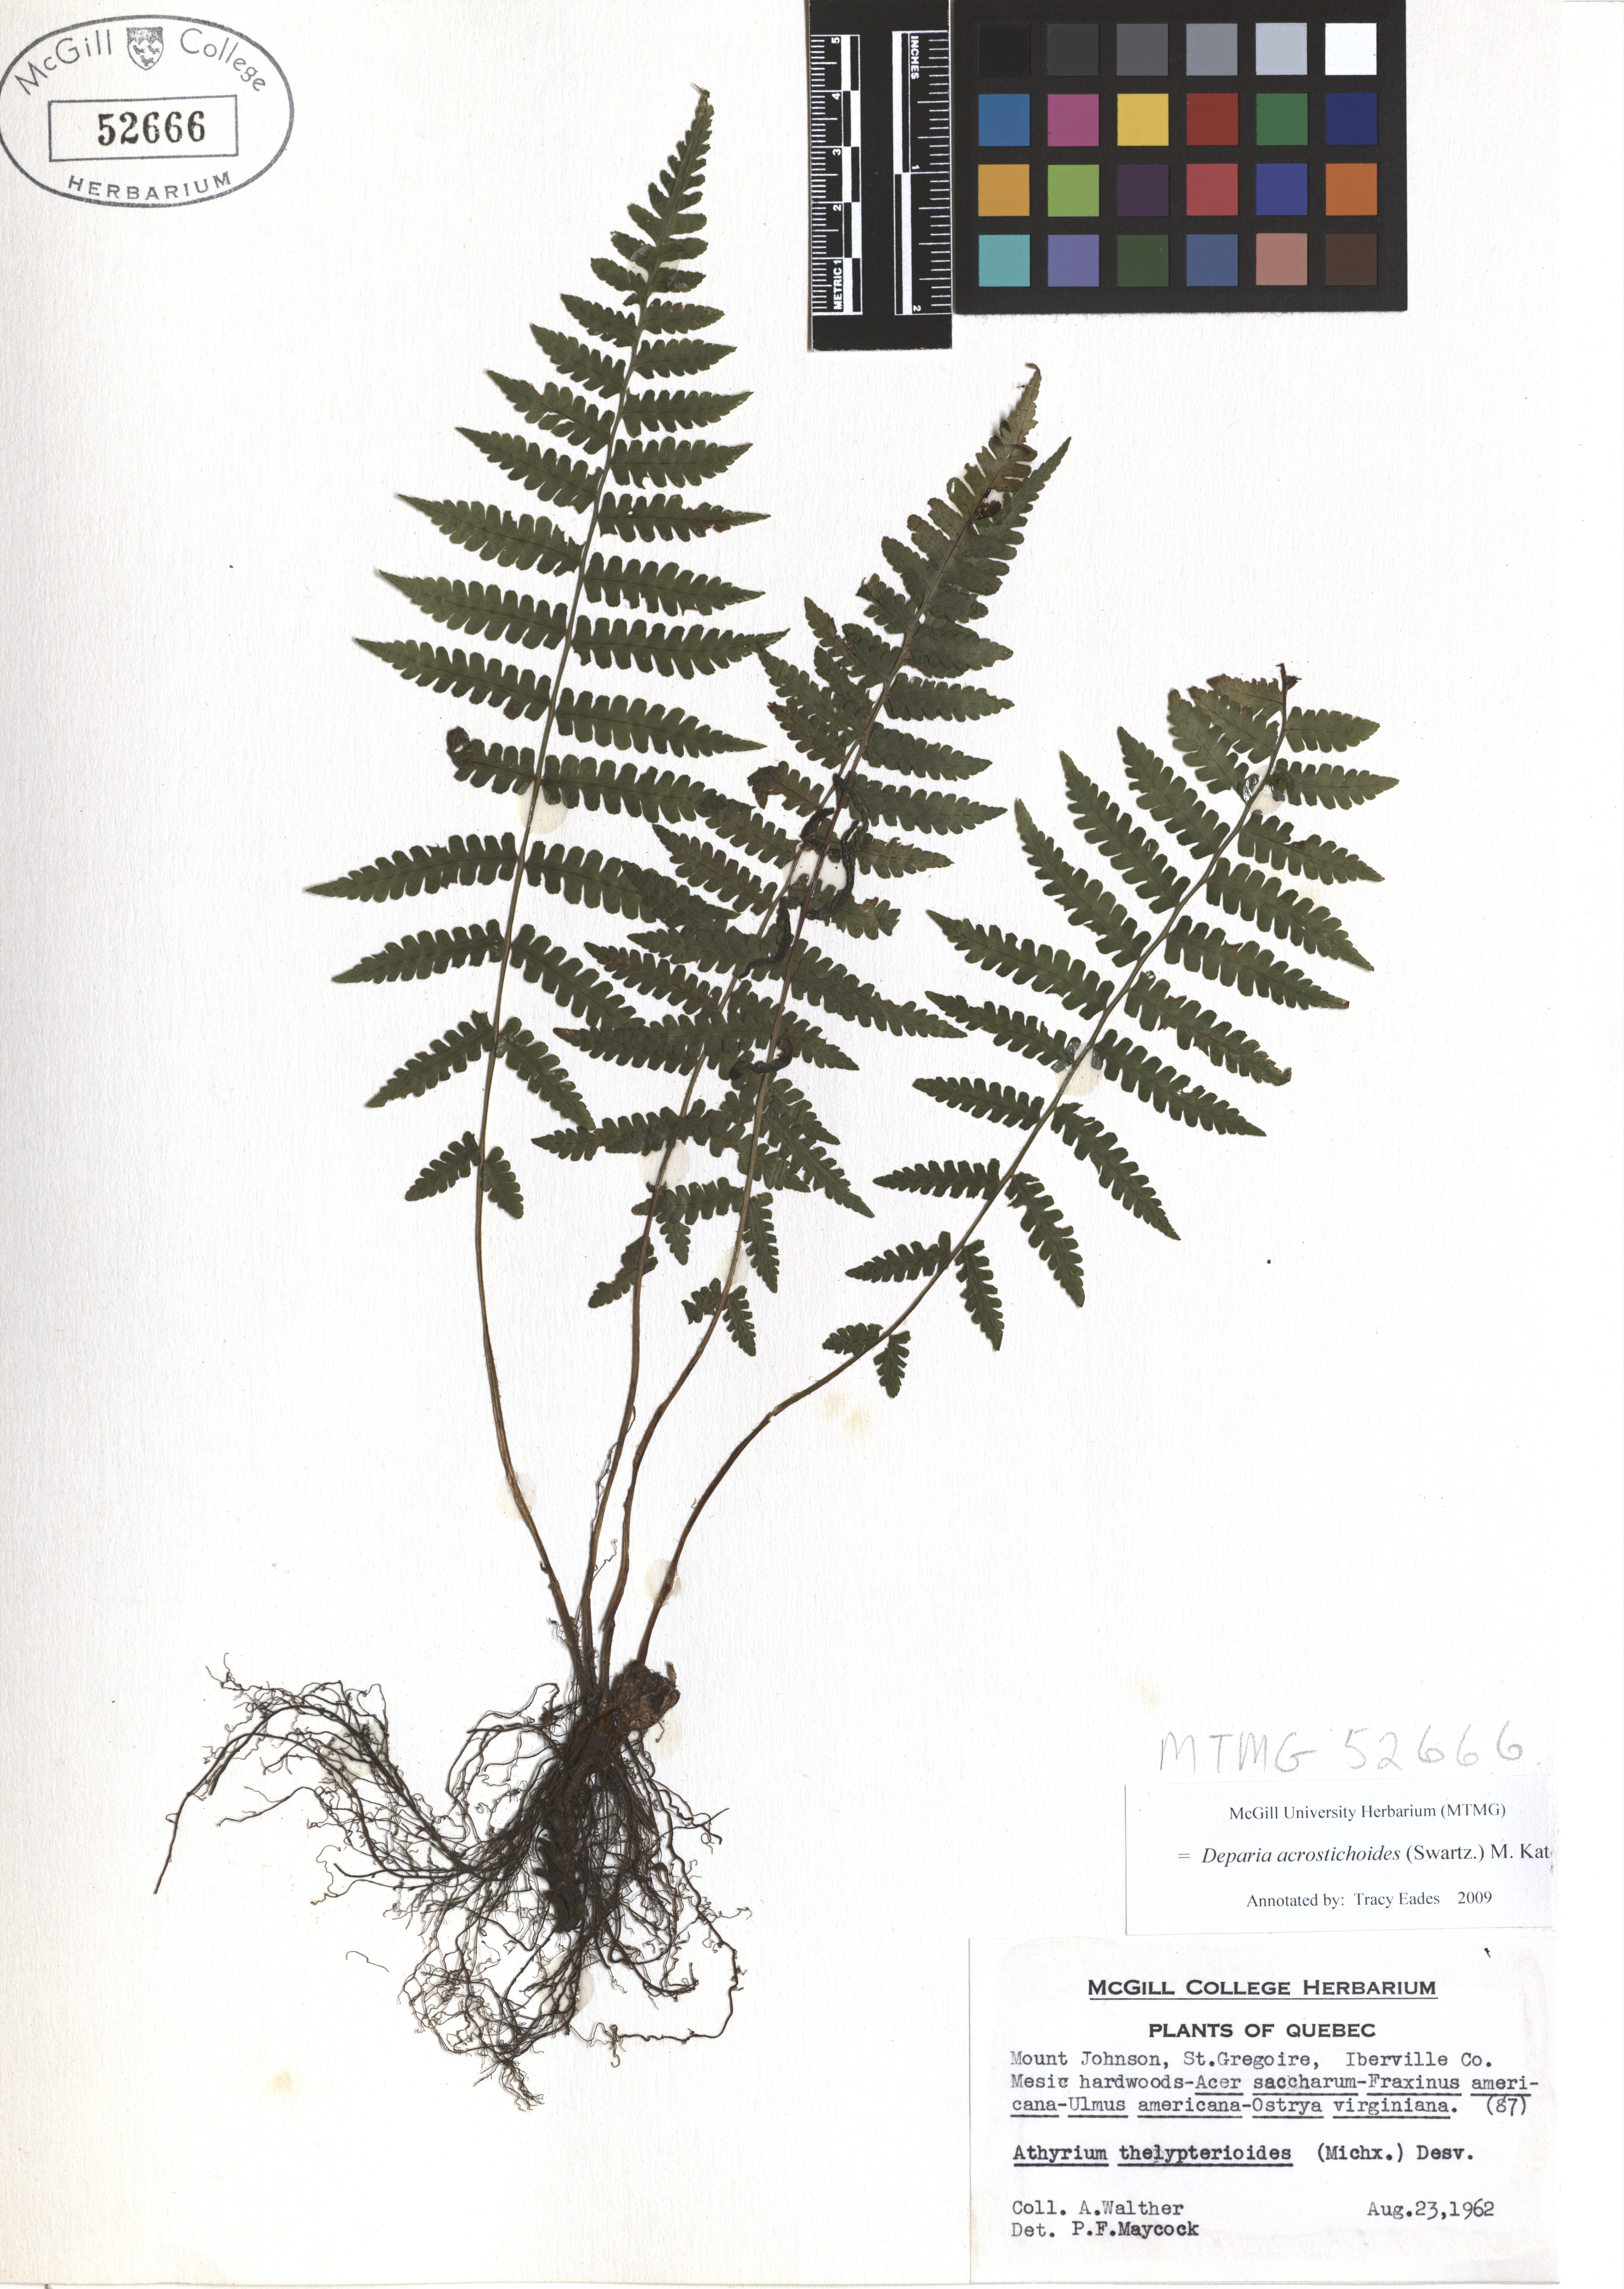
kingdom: Plantae
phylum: Tracheophyta
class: Polypodiopsida
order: Polypodiales
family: Athyriaceae
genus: Deparia
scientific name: Deparia acrostichoides
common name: Silver false spleenwort
